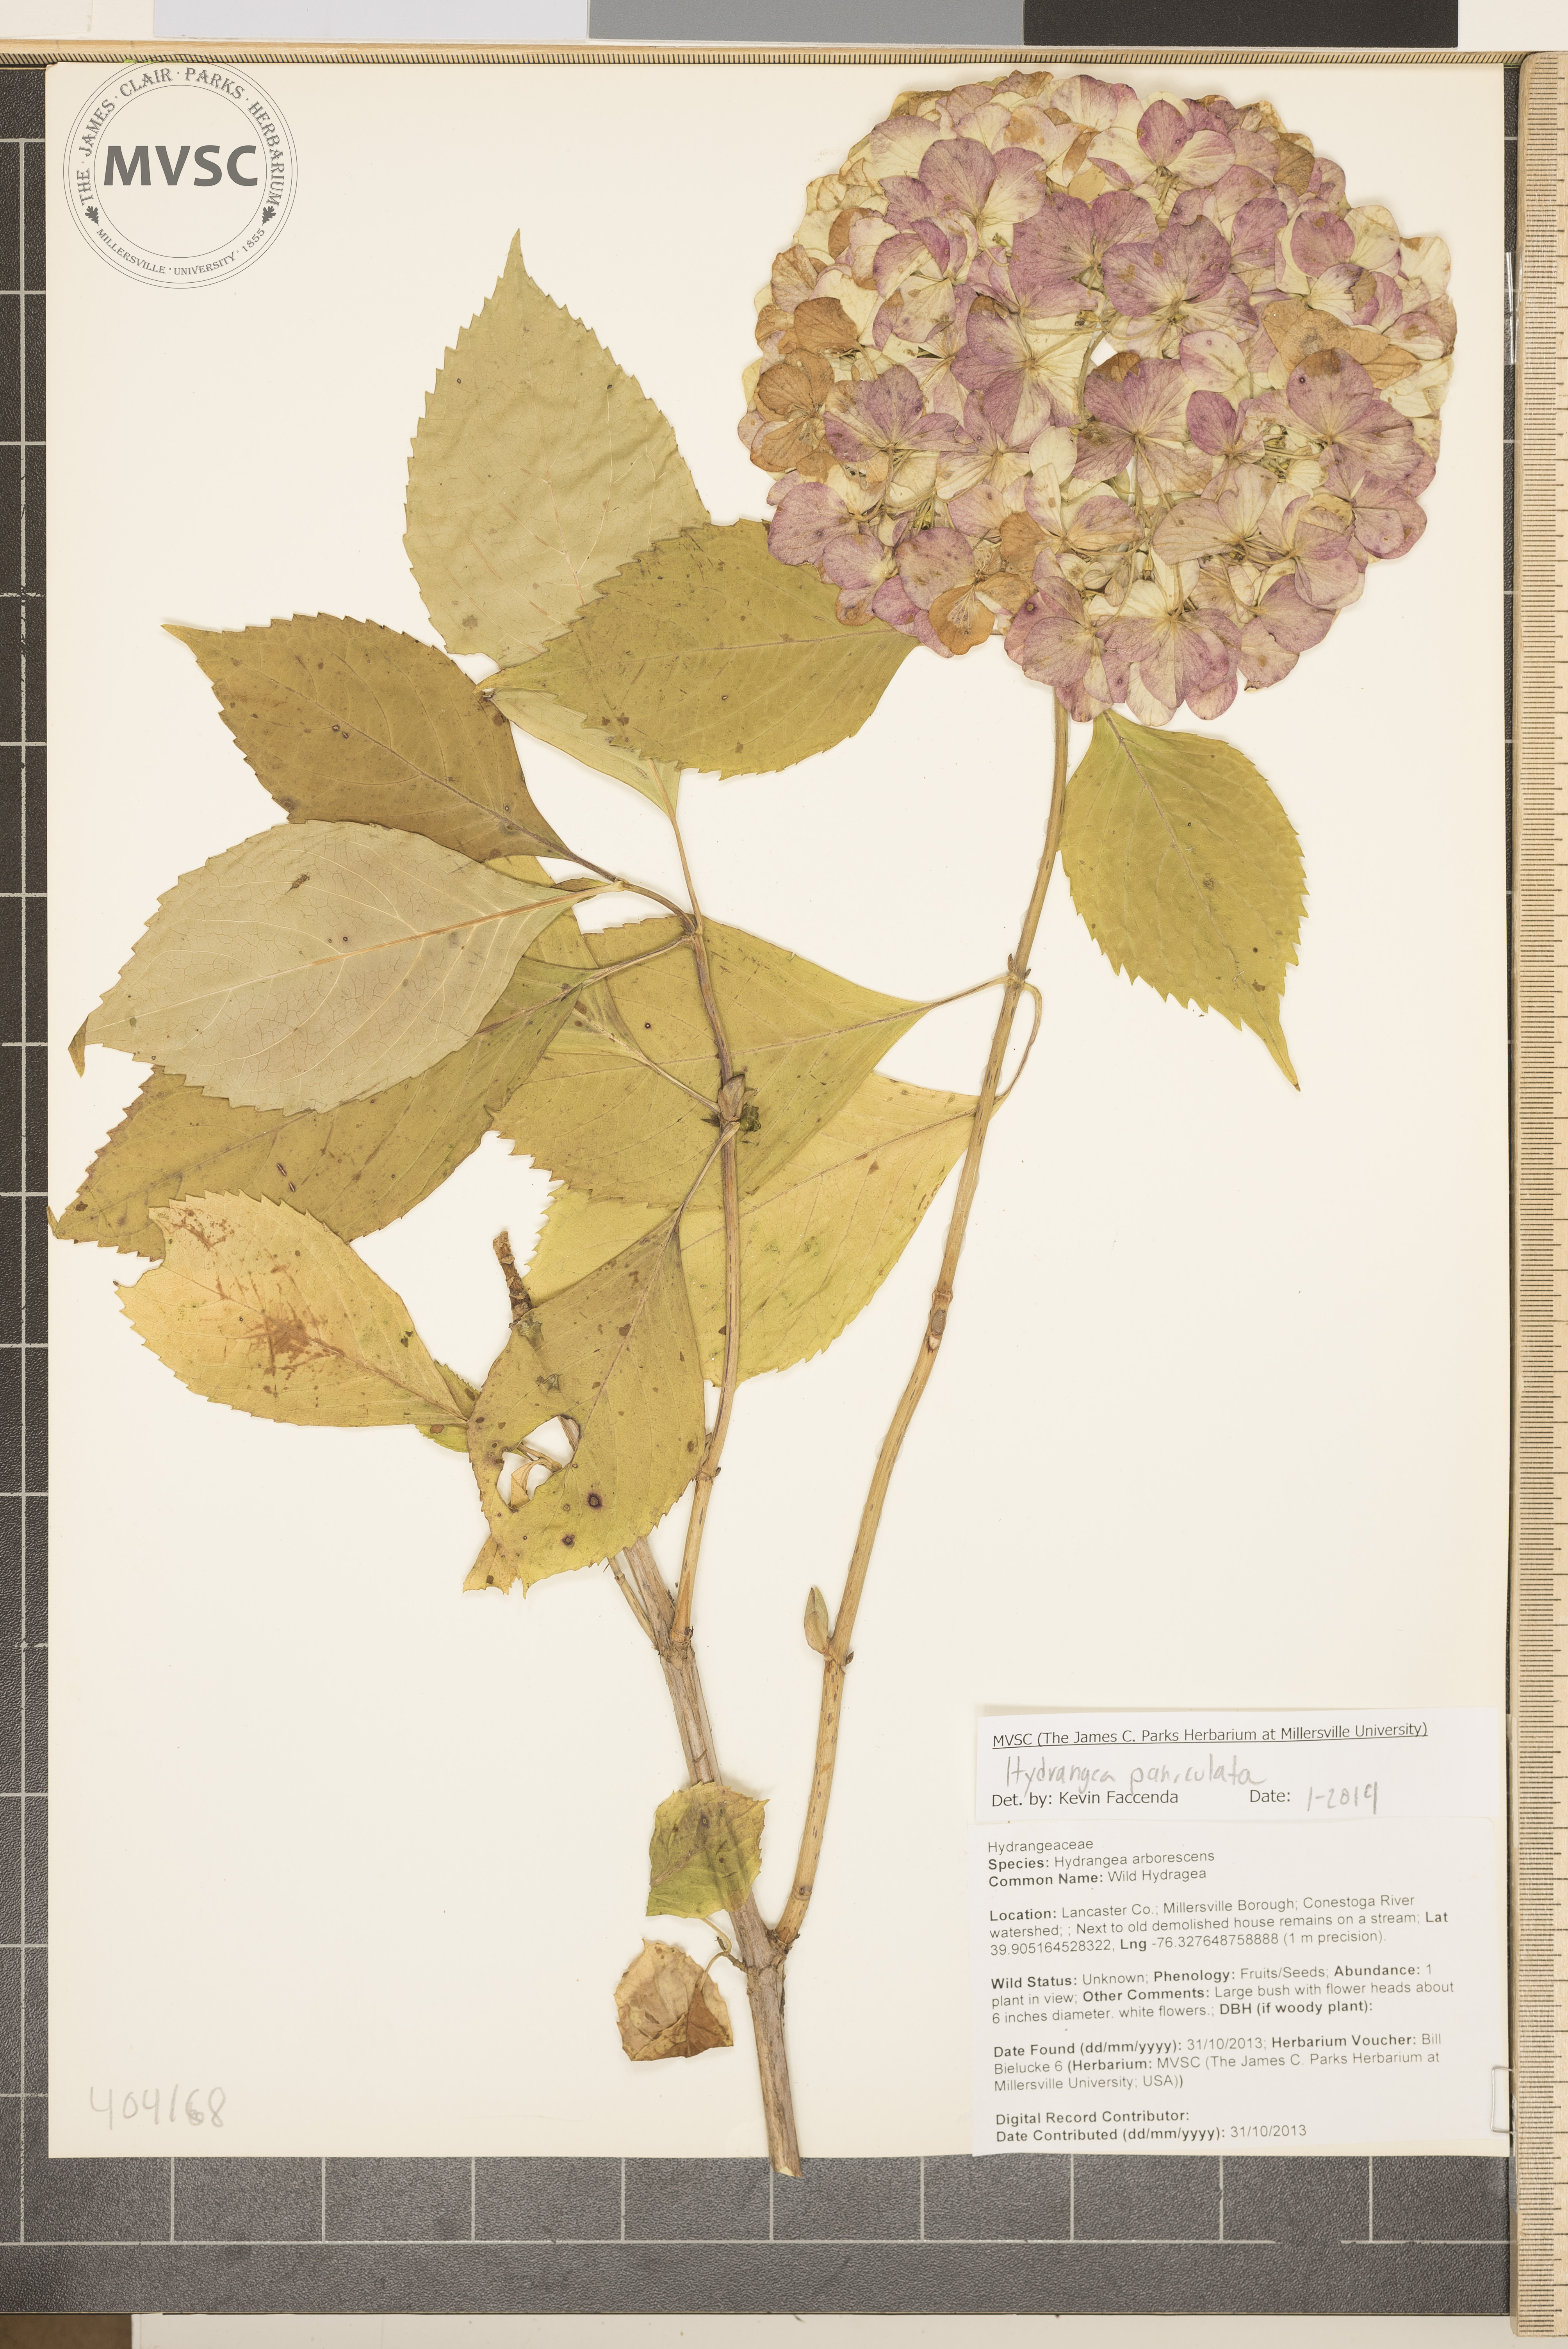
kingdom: Plantae
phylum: Tracheophyta
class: Magnoliopsida
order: Cornales
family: Hydrangeaceae
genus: Hydrangea
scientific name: Hydrangea paniculata
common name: Panicled hydrangea
